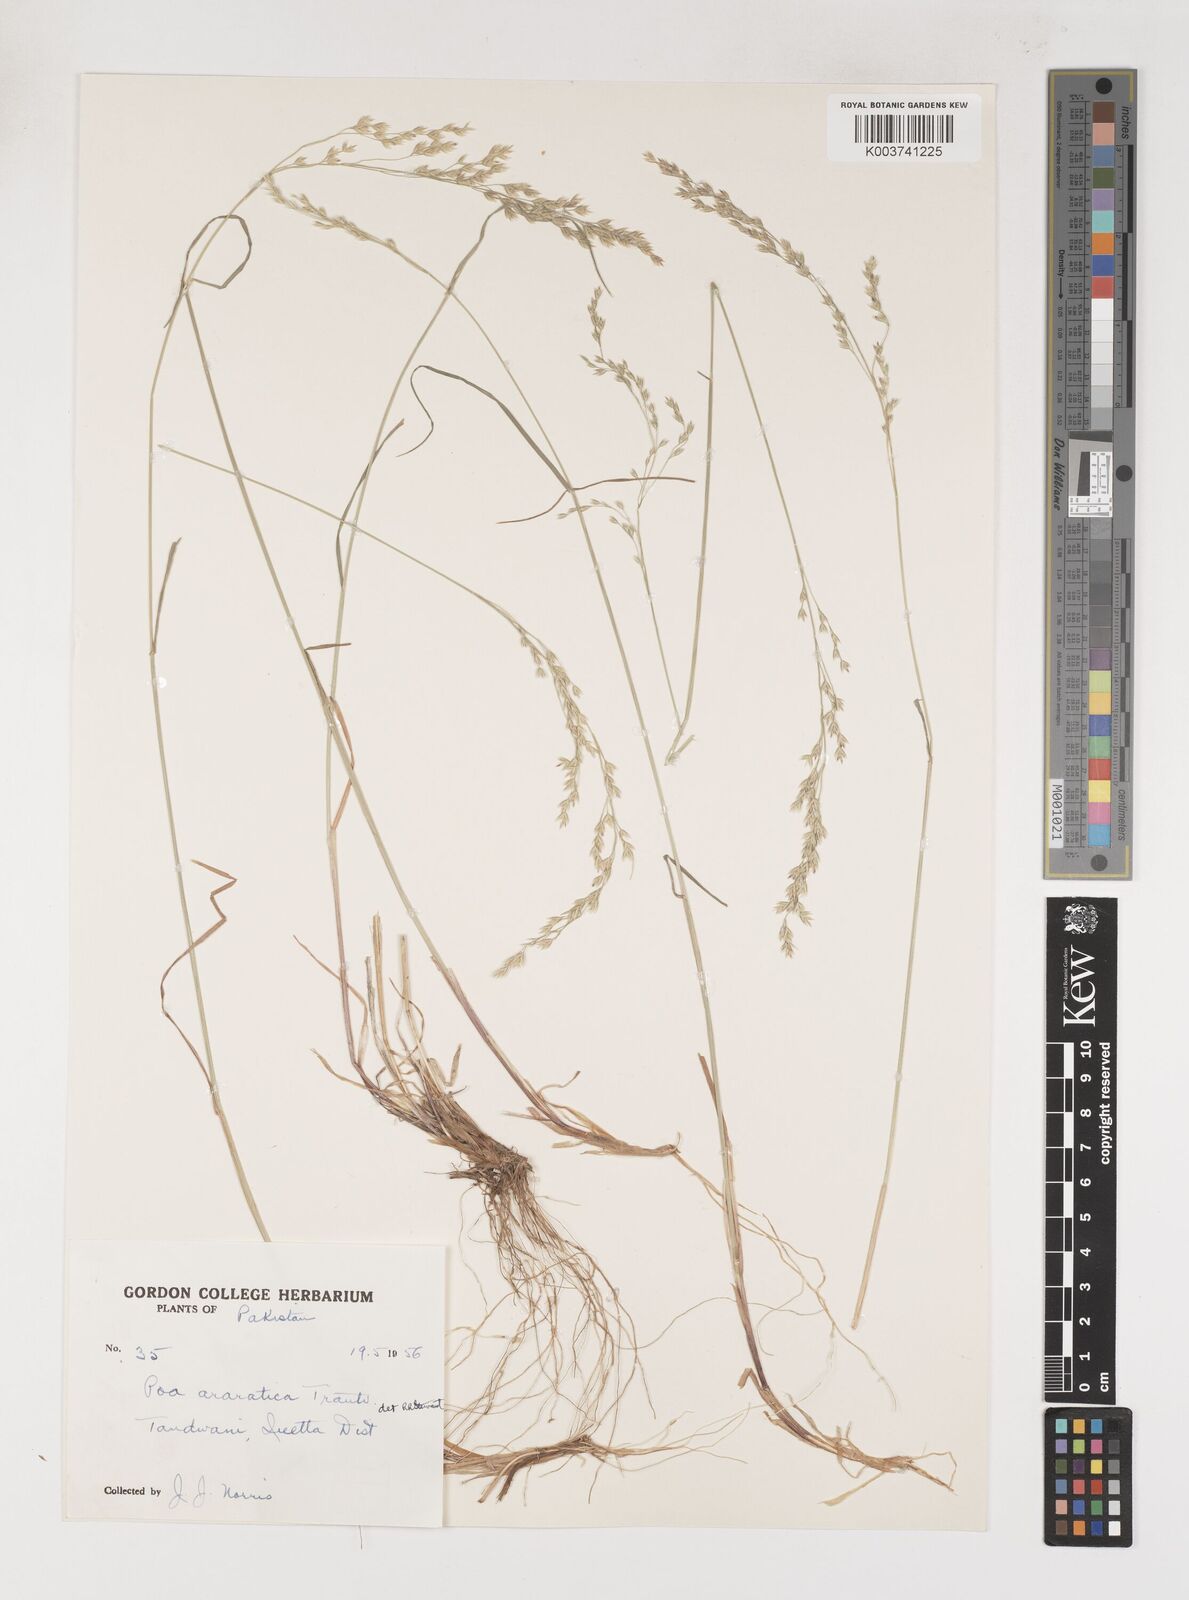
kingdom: Plantae
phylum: Tracheophyta
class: Liliopsida
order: Poales
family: Poaceae
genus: Poa
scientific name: Poa araratica
